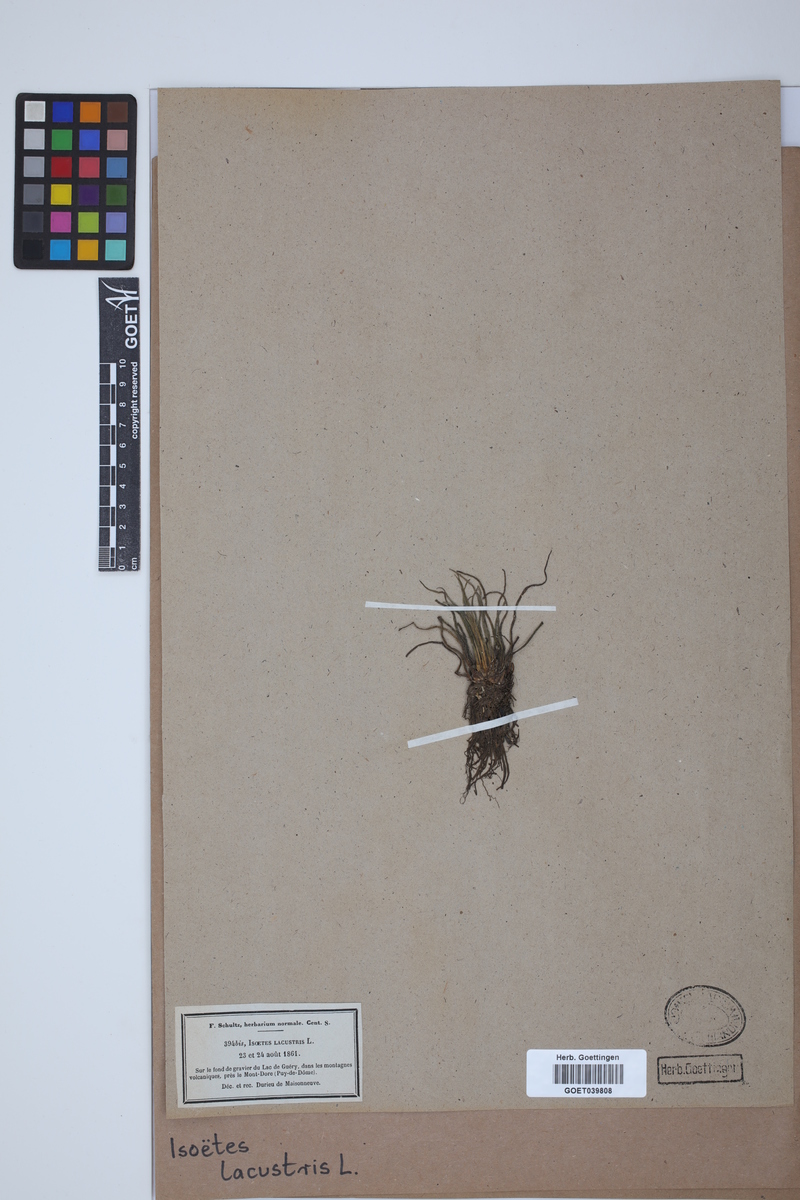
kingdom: Plantae
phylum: Tracheophyta
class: Lycopodiopsida
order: Isoetales
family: Isoetaceae
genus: Isoetes
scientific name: Isoetes lacustris
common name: Common quillwort
